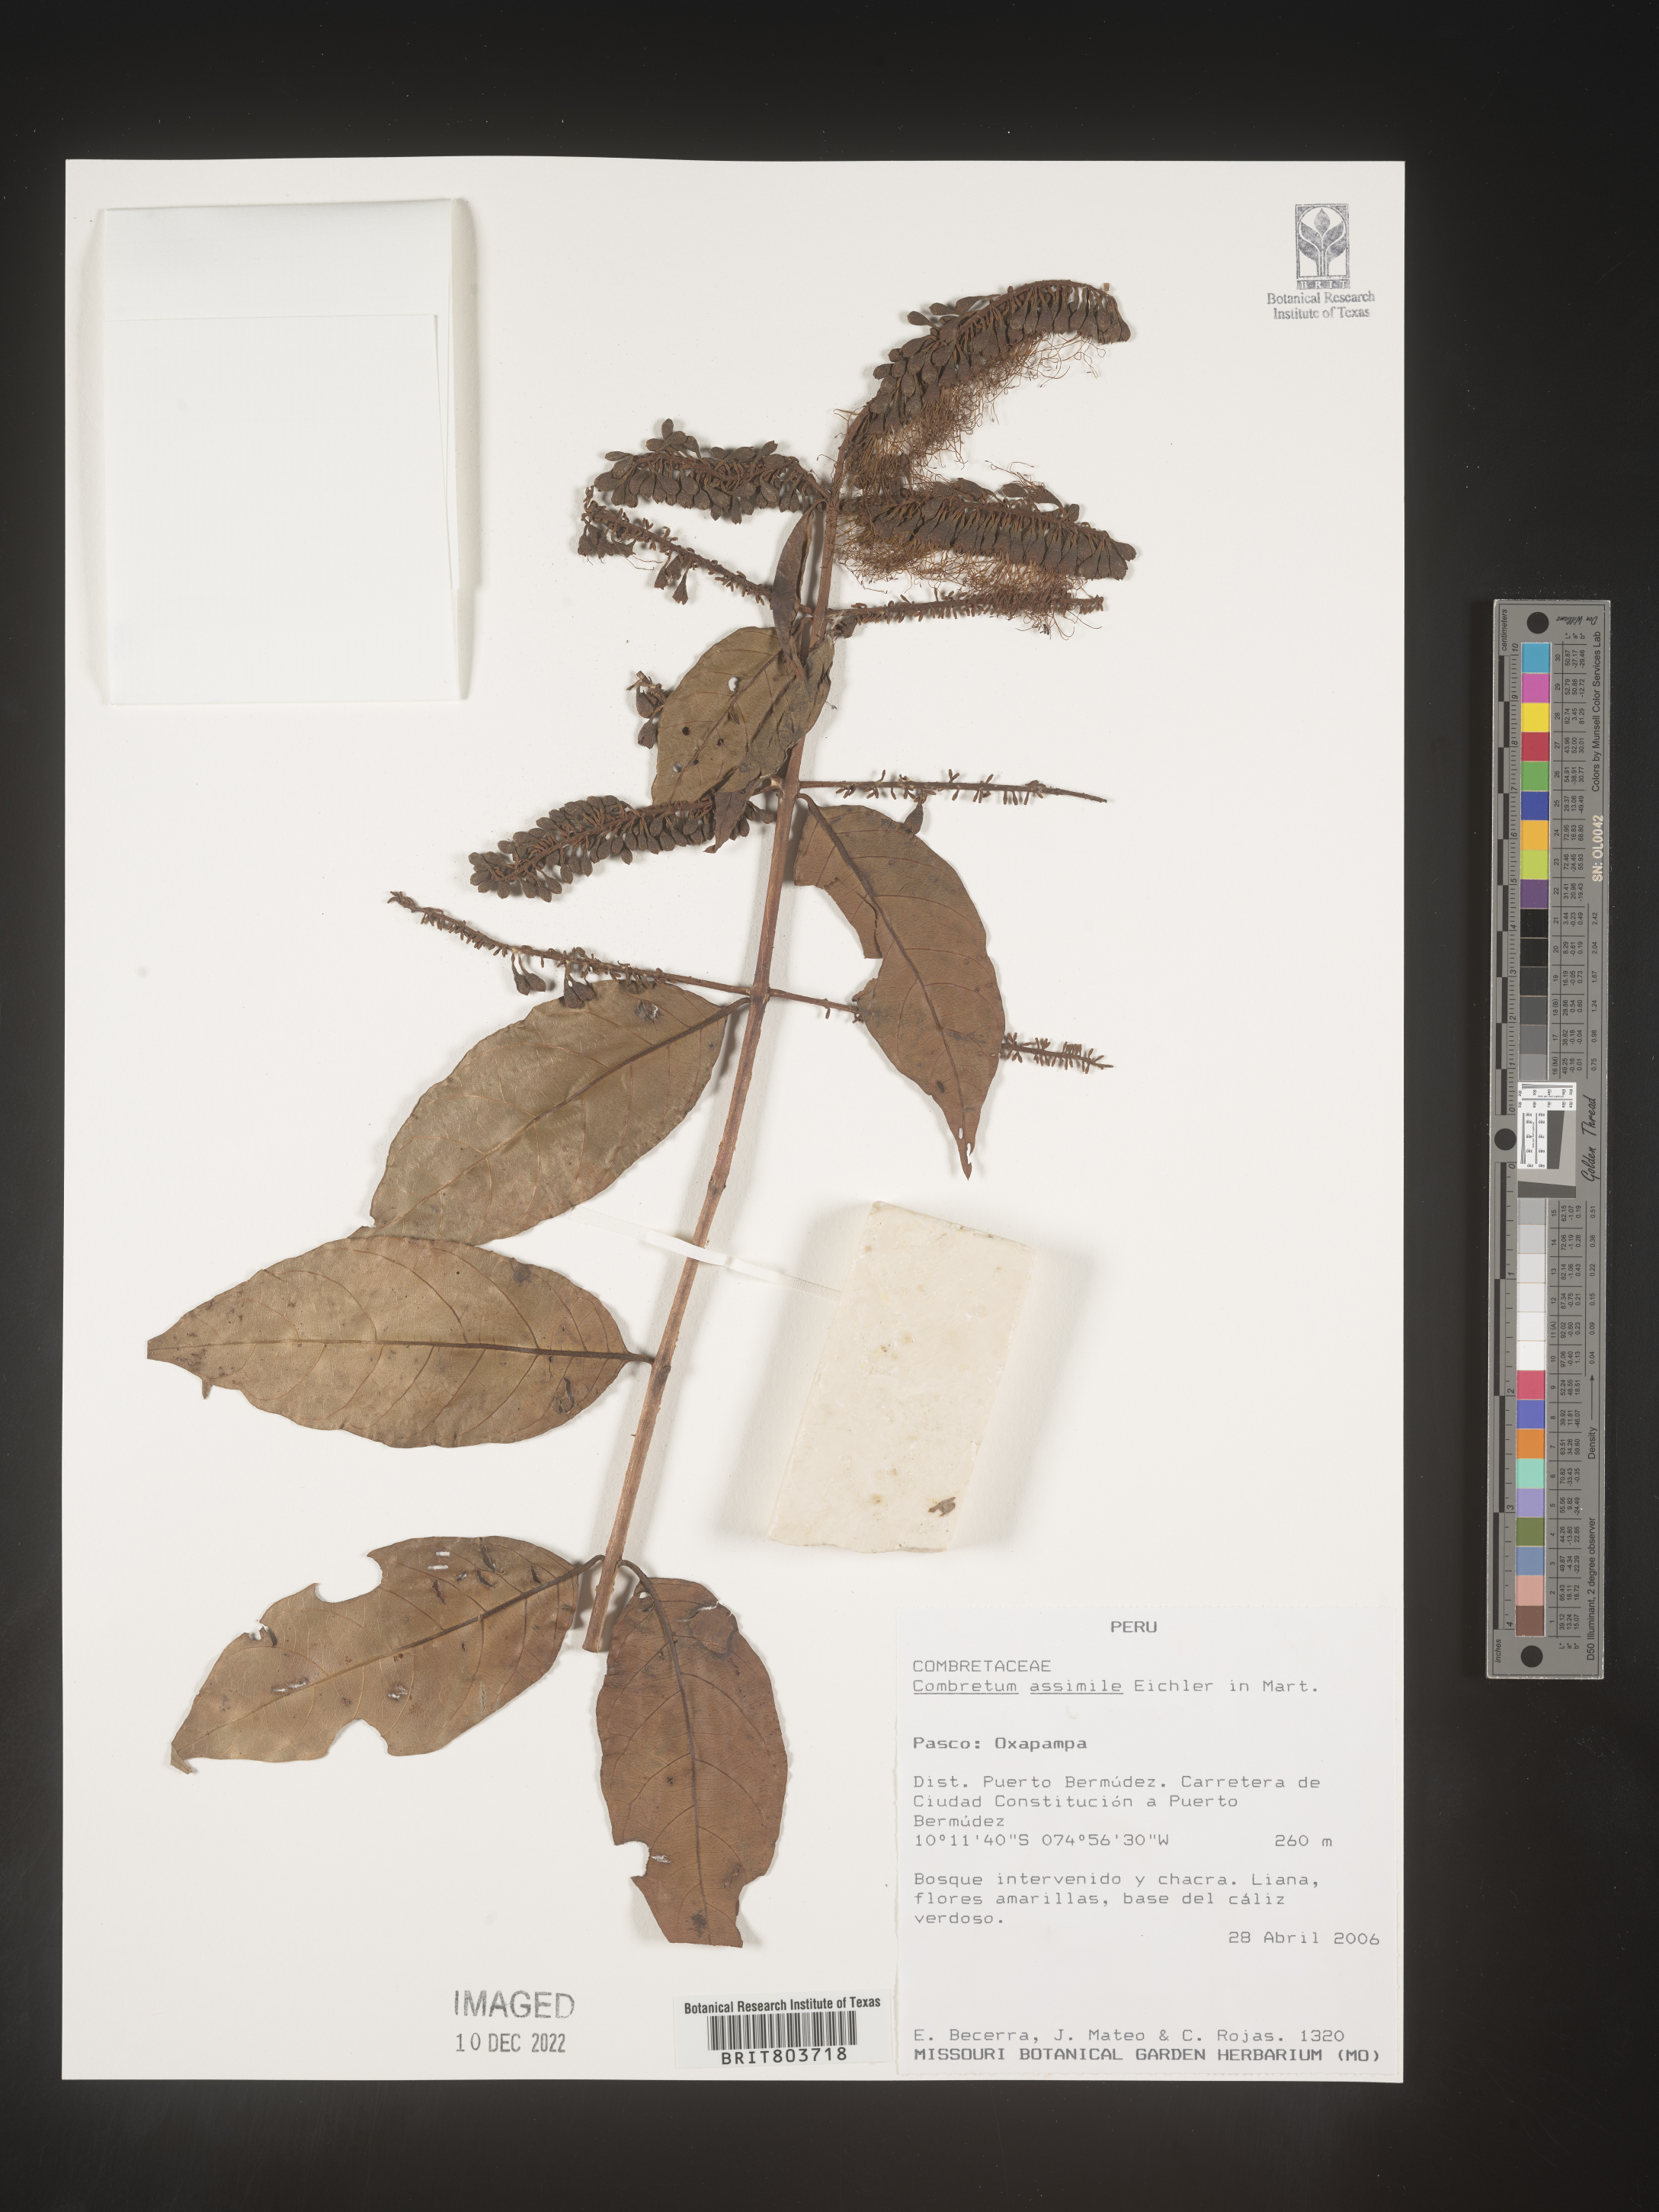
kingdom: Plantae
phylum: Tracheophyta
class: Magnoliopsida
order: Myrtales
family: Combretaceae
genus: Combretum
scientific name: Combretum
